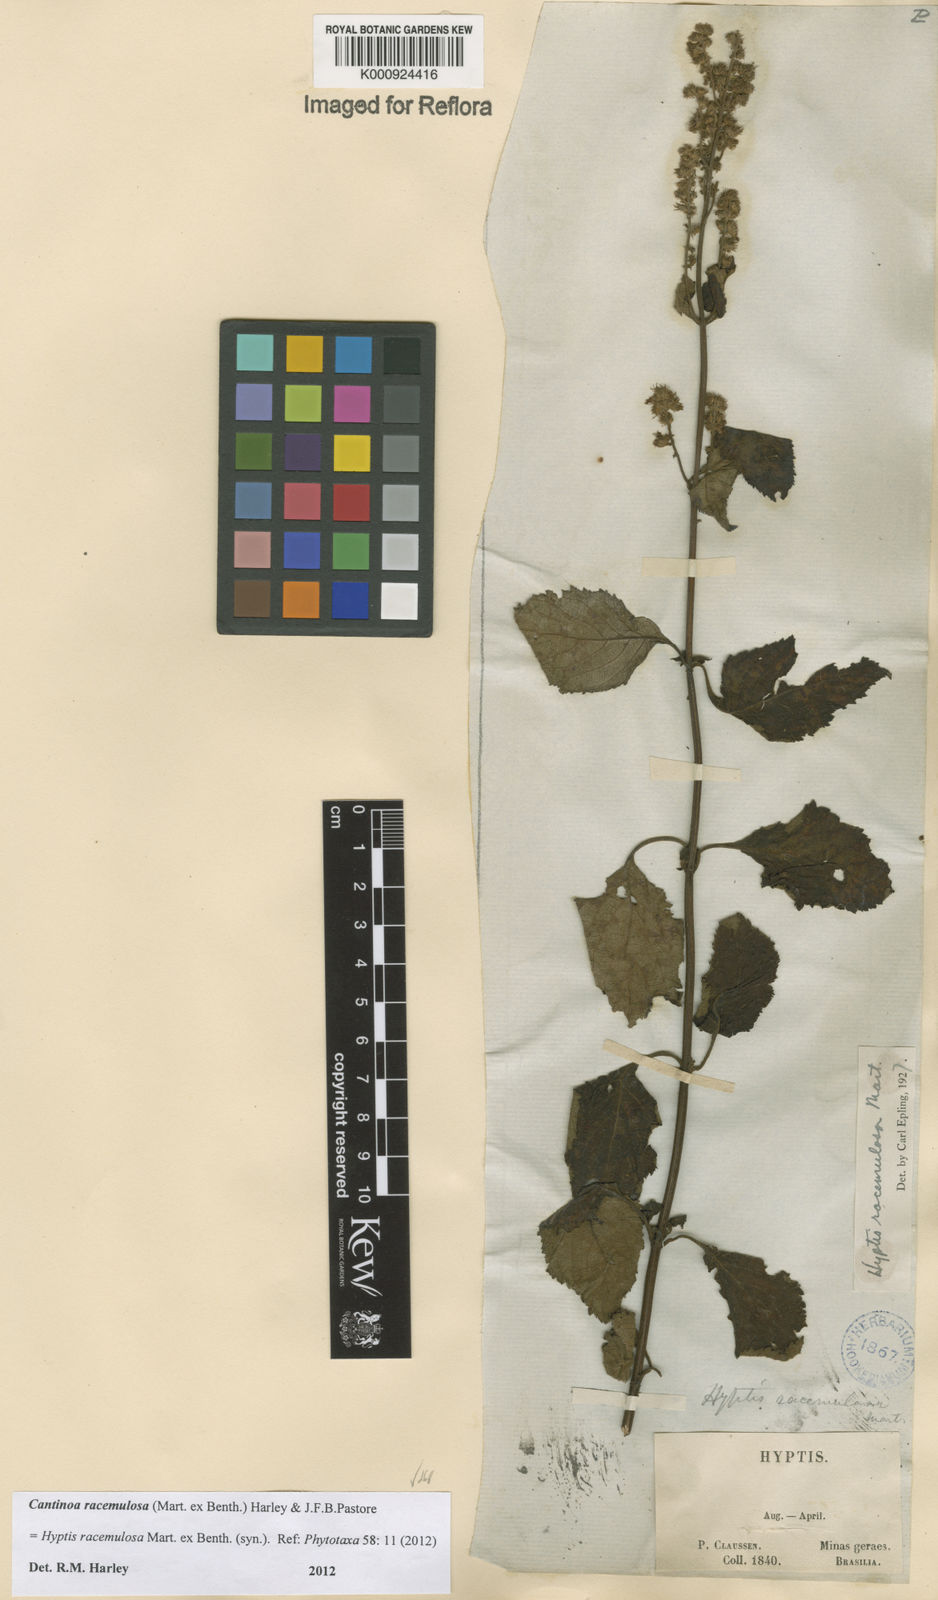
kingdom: Plantae
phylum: Tracheophyta
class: Magnoliopsida
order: Lamiales
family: Lamiaceae
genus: Cantinoa
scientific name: Cantinoa racemulosa
